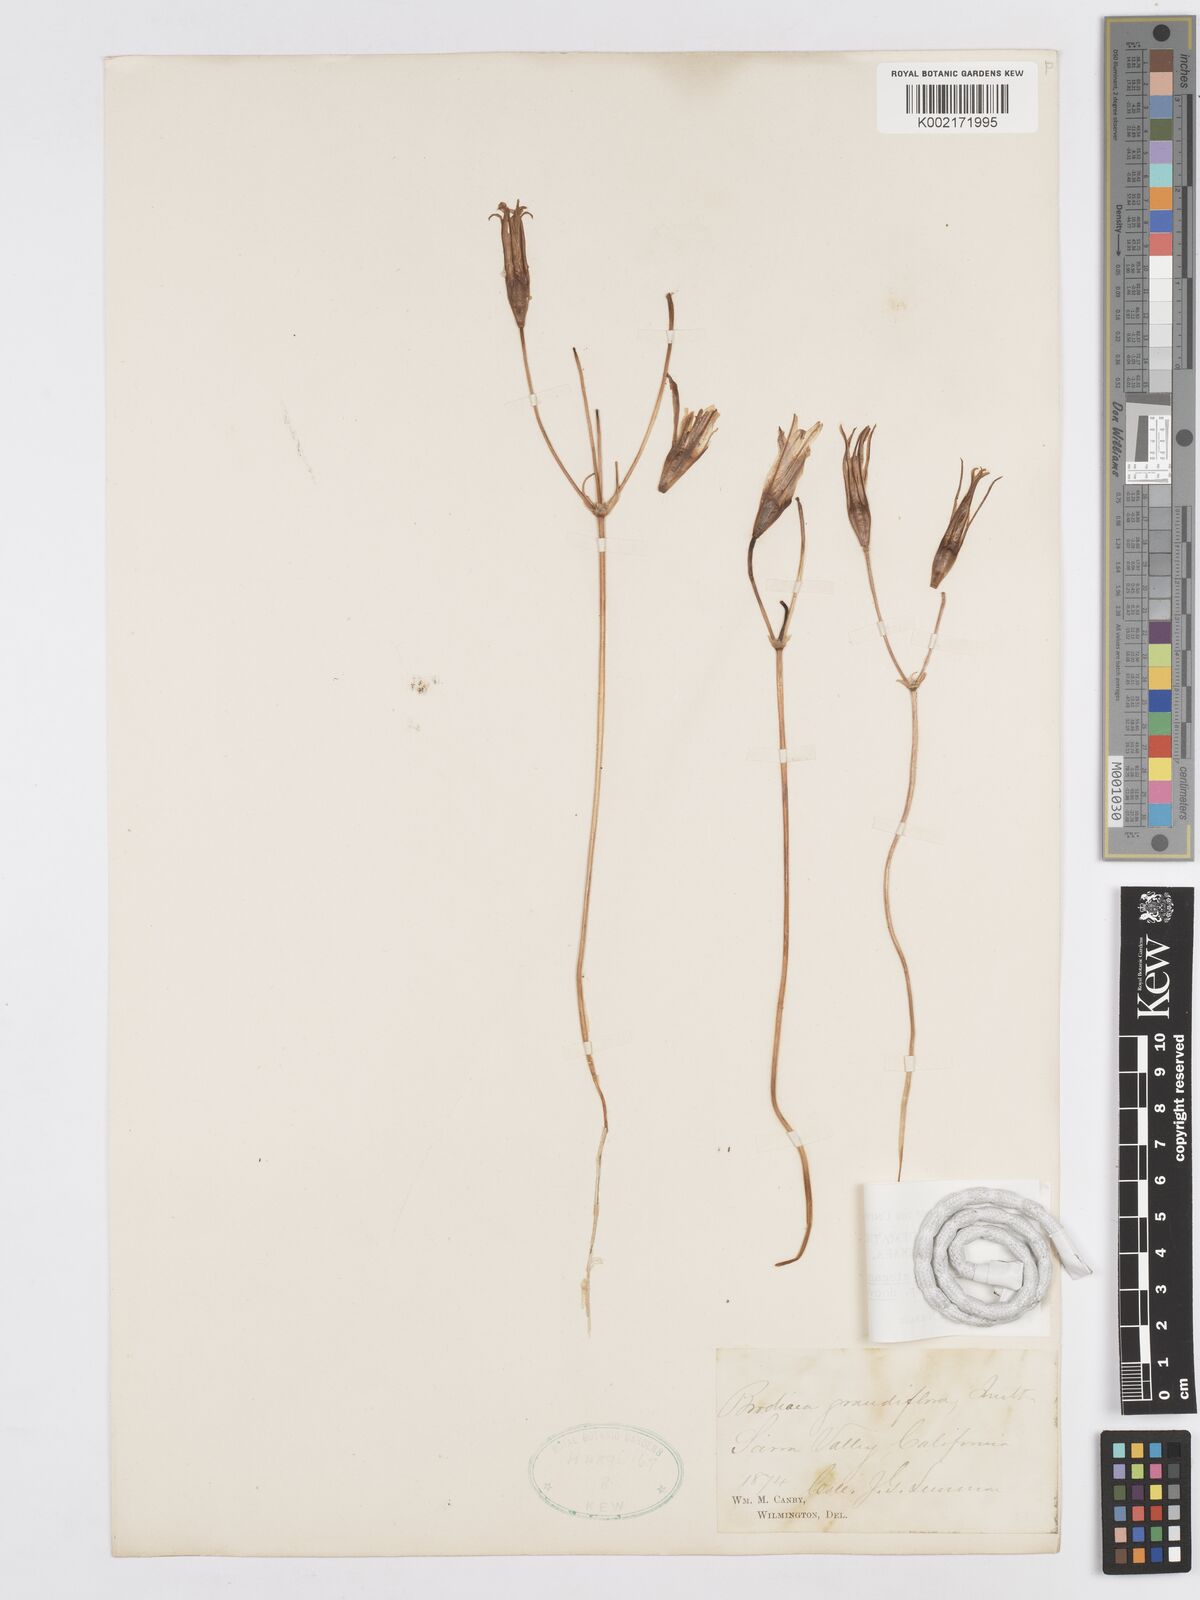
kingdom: Plantae
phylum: Tracheophyta
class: Liliopsida
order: Asparagales
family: Asparagaceae
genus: Brodiaea
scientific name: Brodiaea elegans
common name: Elegant cluster-lily
